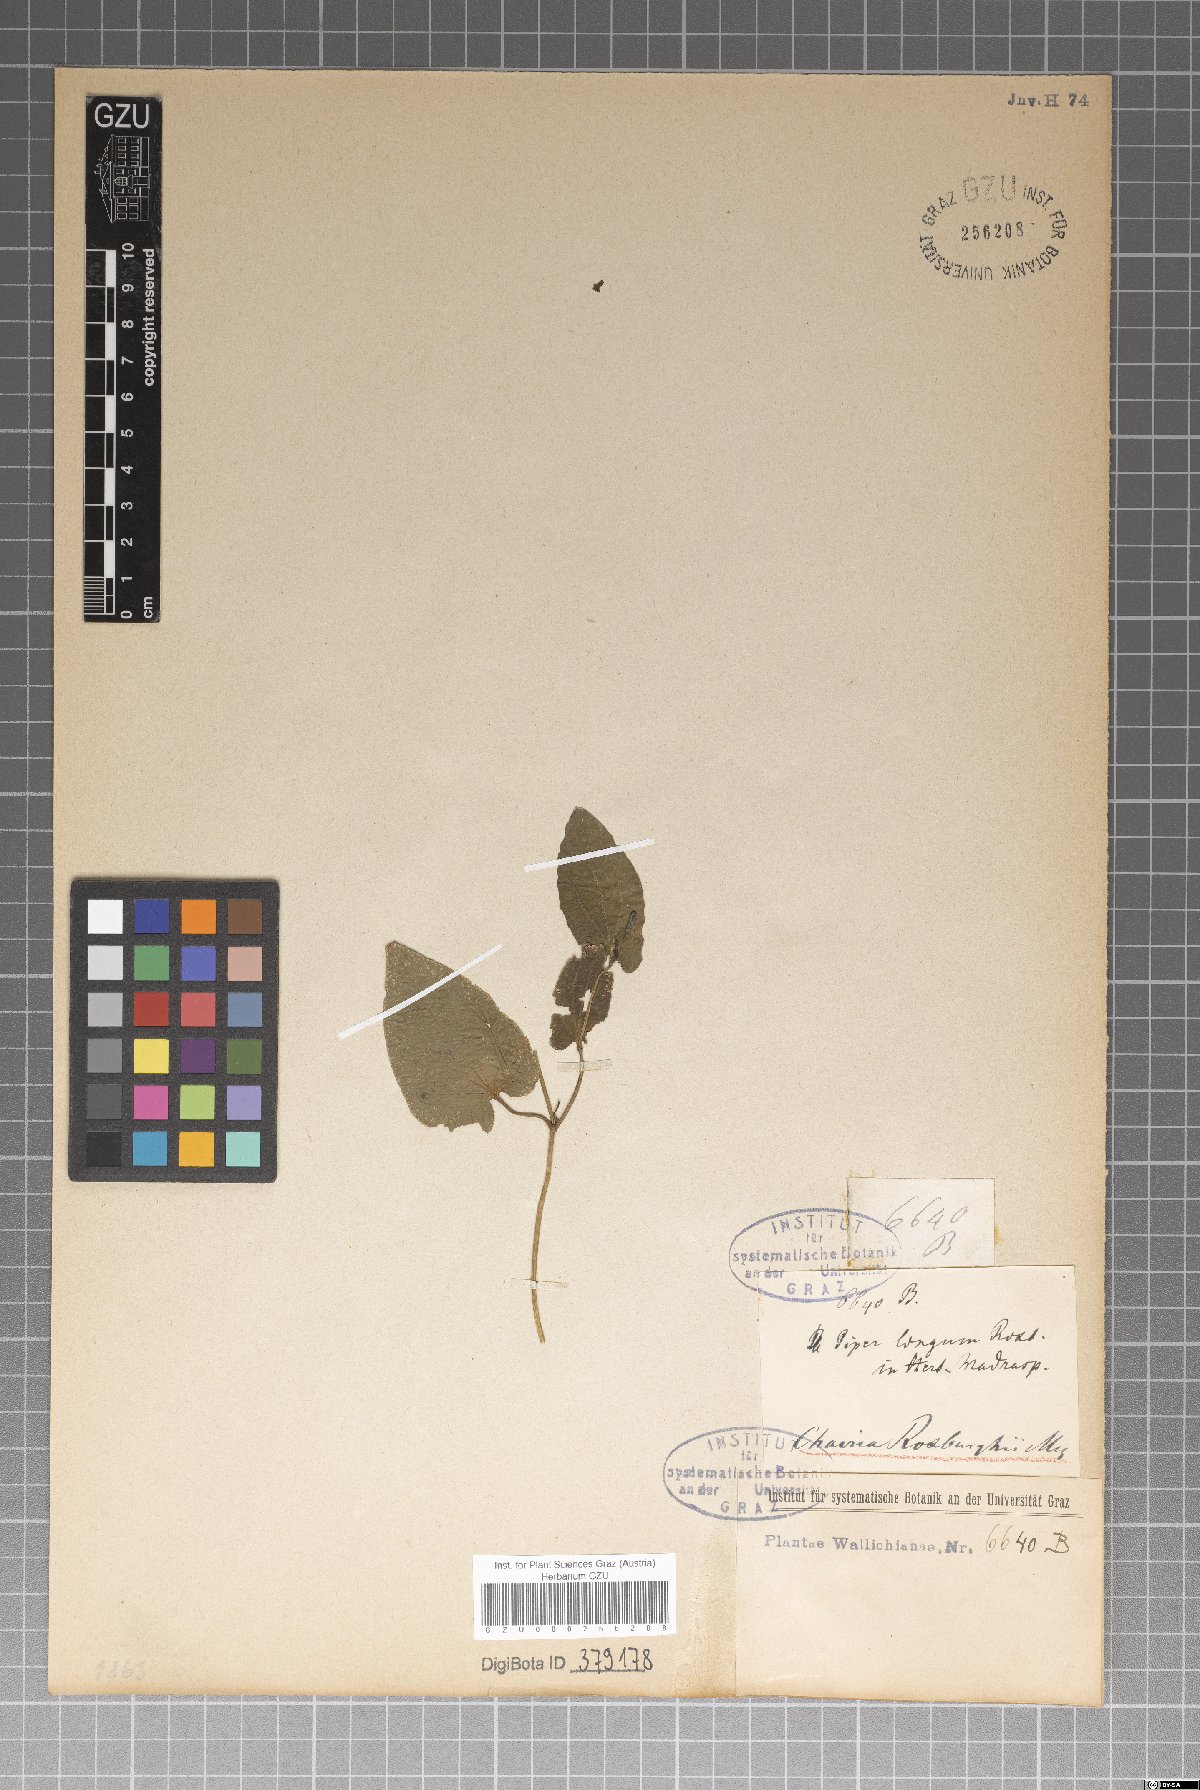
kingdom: Plantae
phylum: Tracheophyta
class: Magnoliopsida
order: Piperales
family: Piperaceae
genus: Piper
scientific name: Piper longum
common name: Long pepper
